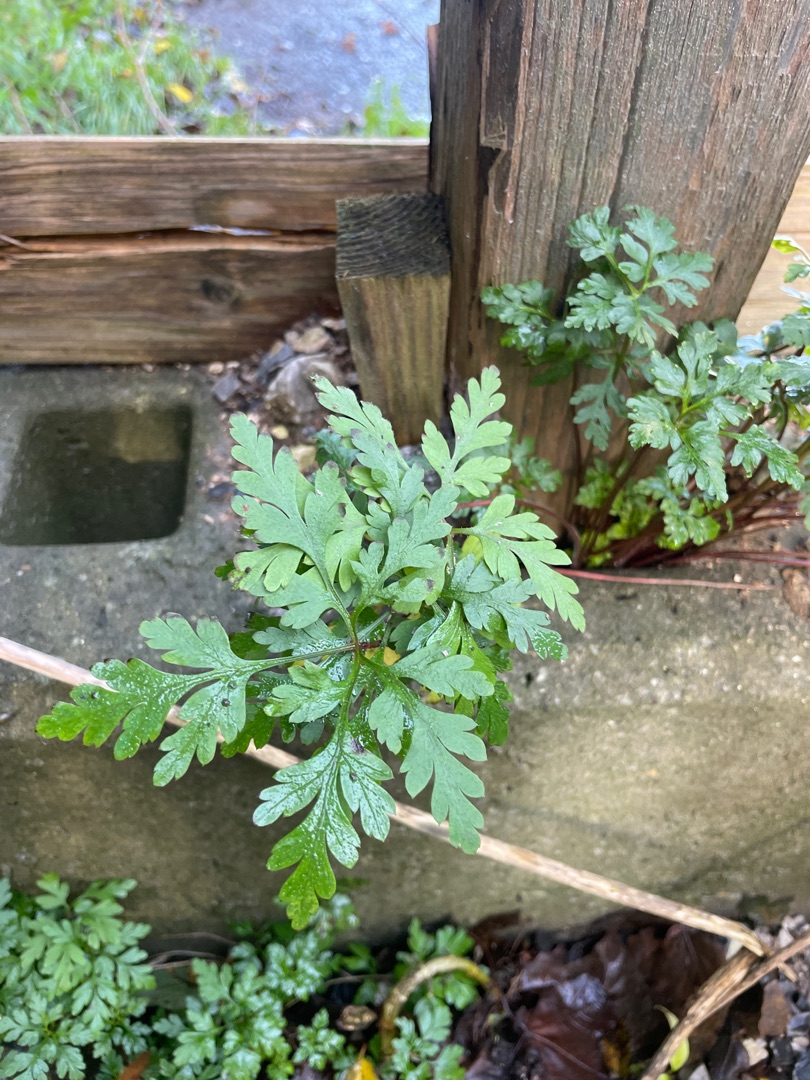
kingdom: Plantae
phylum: Tracheophyta
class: Magnoliopsida
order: Geraniales
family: Geraniaceae
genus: Geranium
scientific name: Geranium robertianum
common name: Stinkende storkenæb
